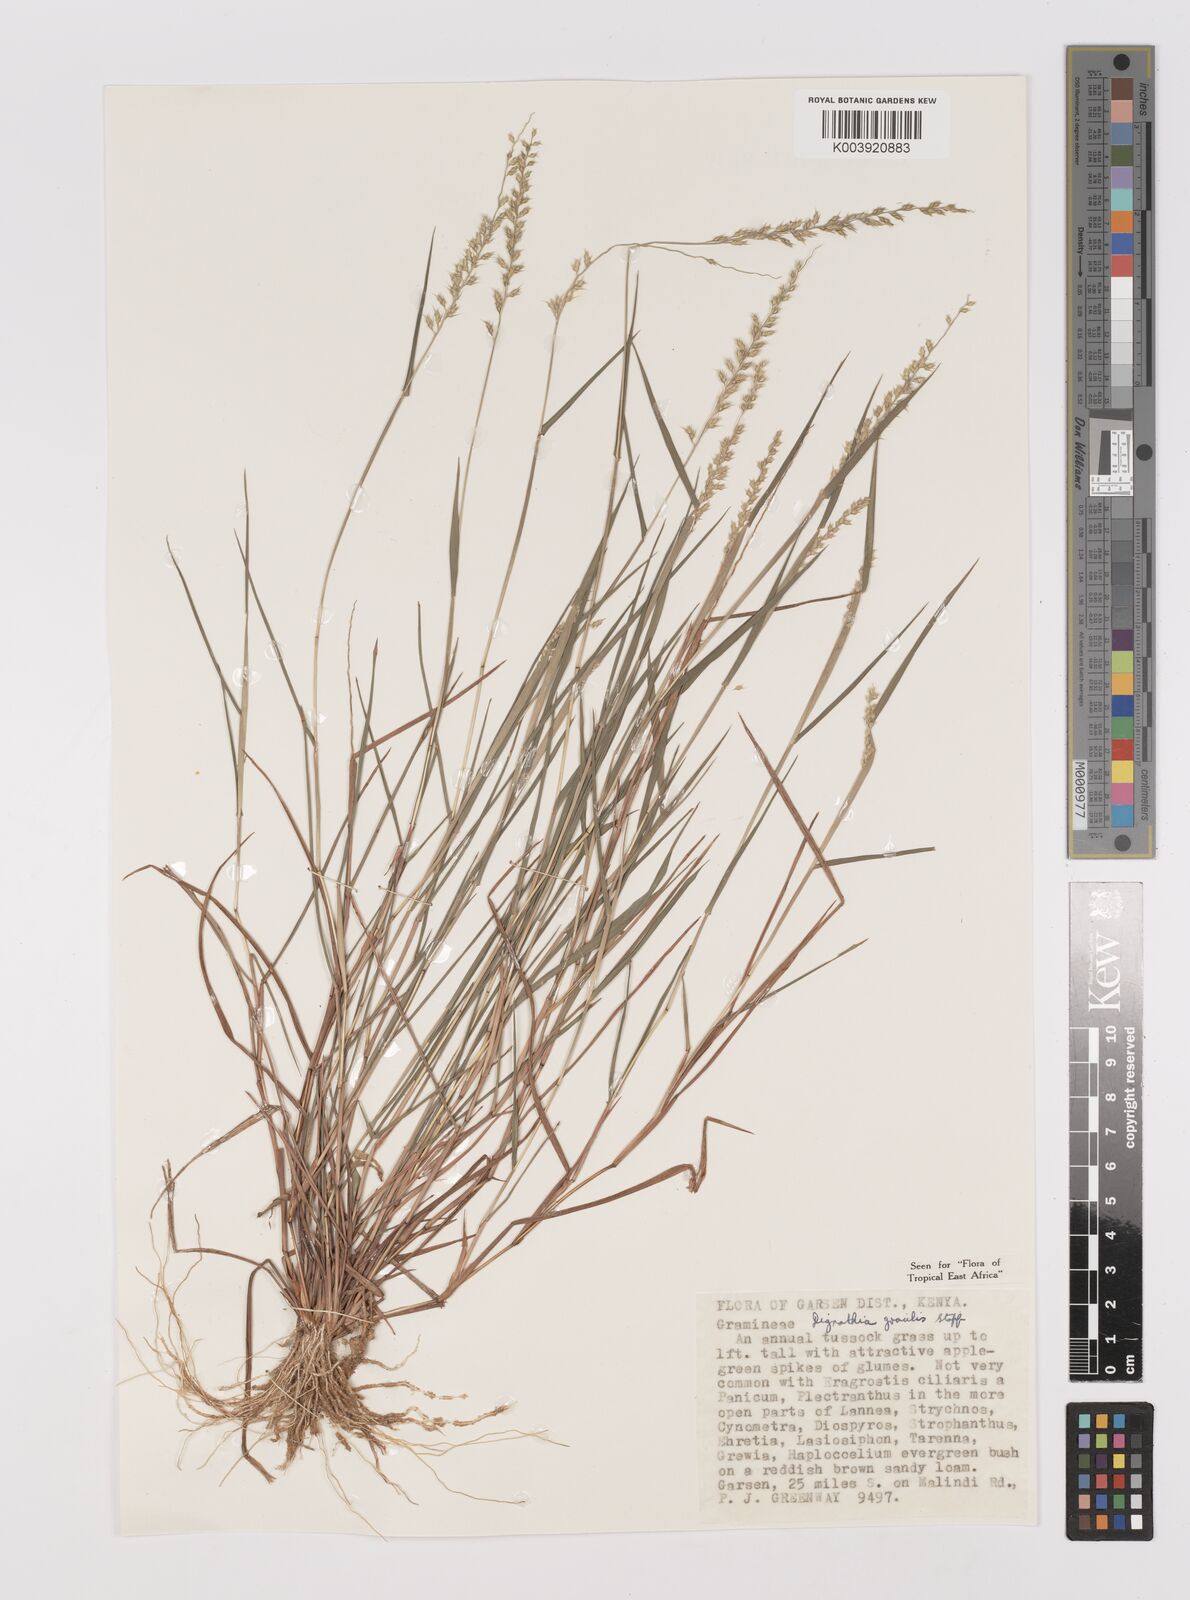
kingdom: Plantae
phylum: Tracheophyta
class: Liliopsida
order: Poales
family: Poaceae
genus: Dignathia
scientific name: Dignathia gracilis
